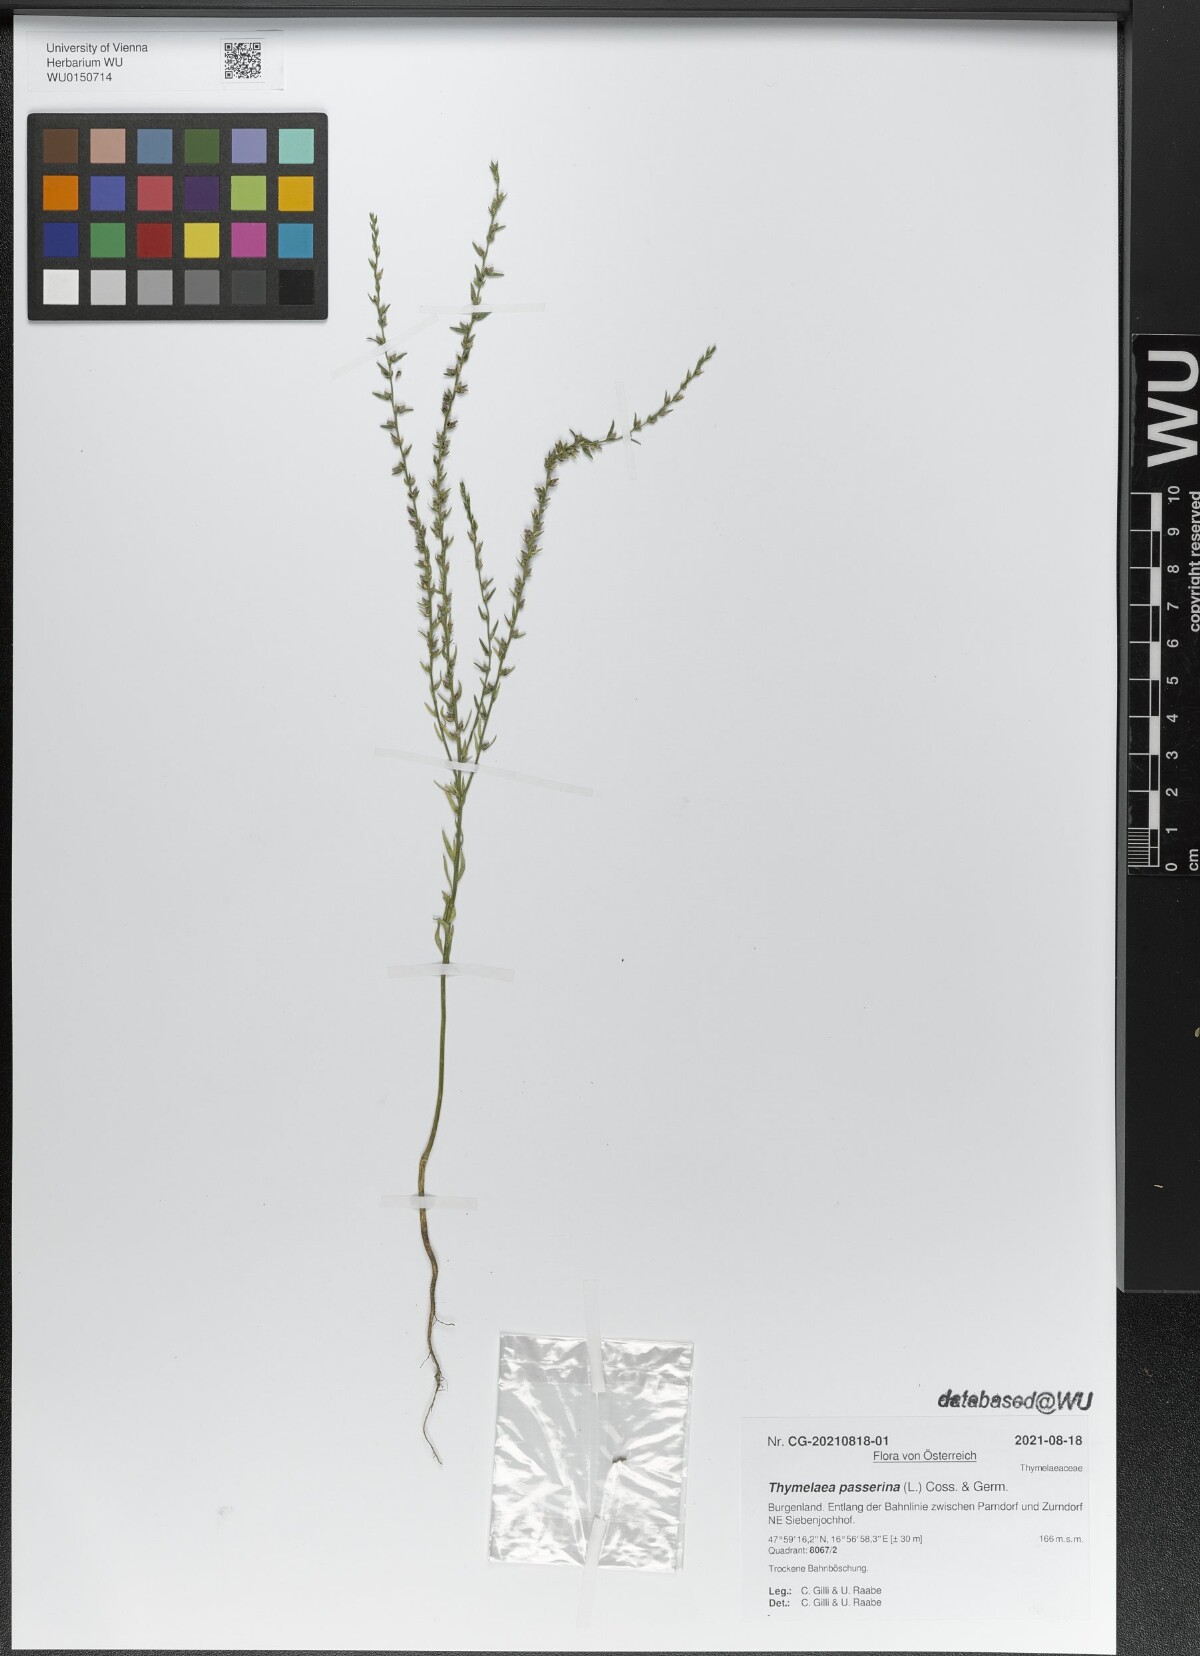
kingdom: Plantae
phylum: Tracheophyta
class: Magnoliopsida
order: Malvales
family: Thymelaeaceae
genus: Thymelaea
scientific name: Thymelaea passerina
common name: Annual thymelaea
